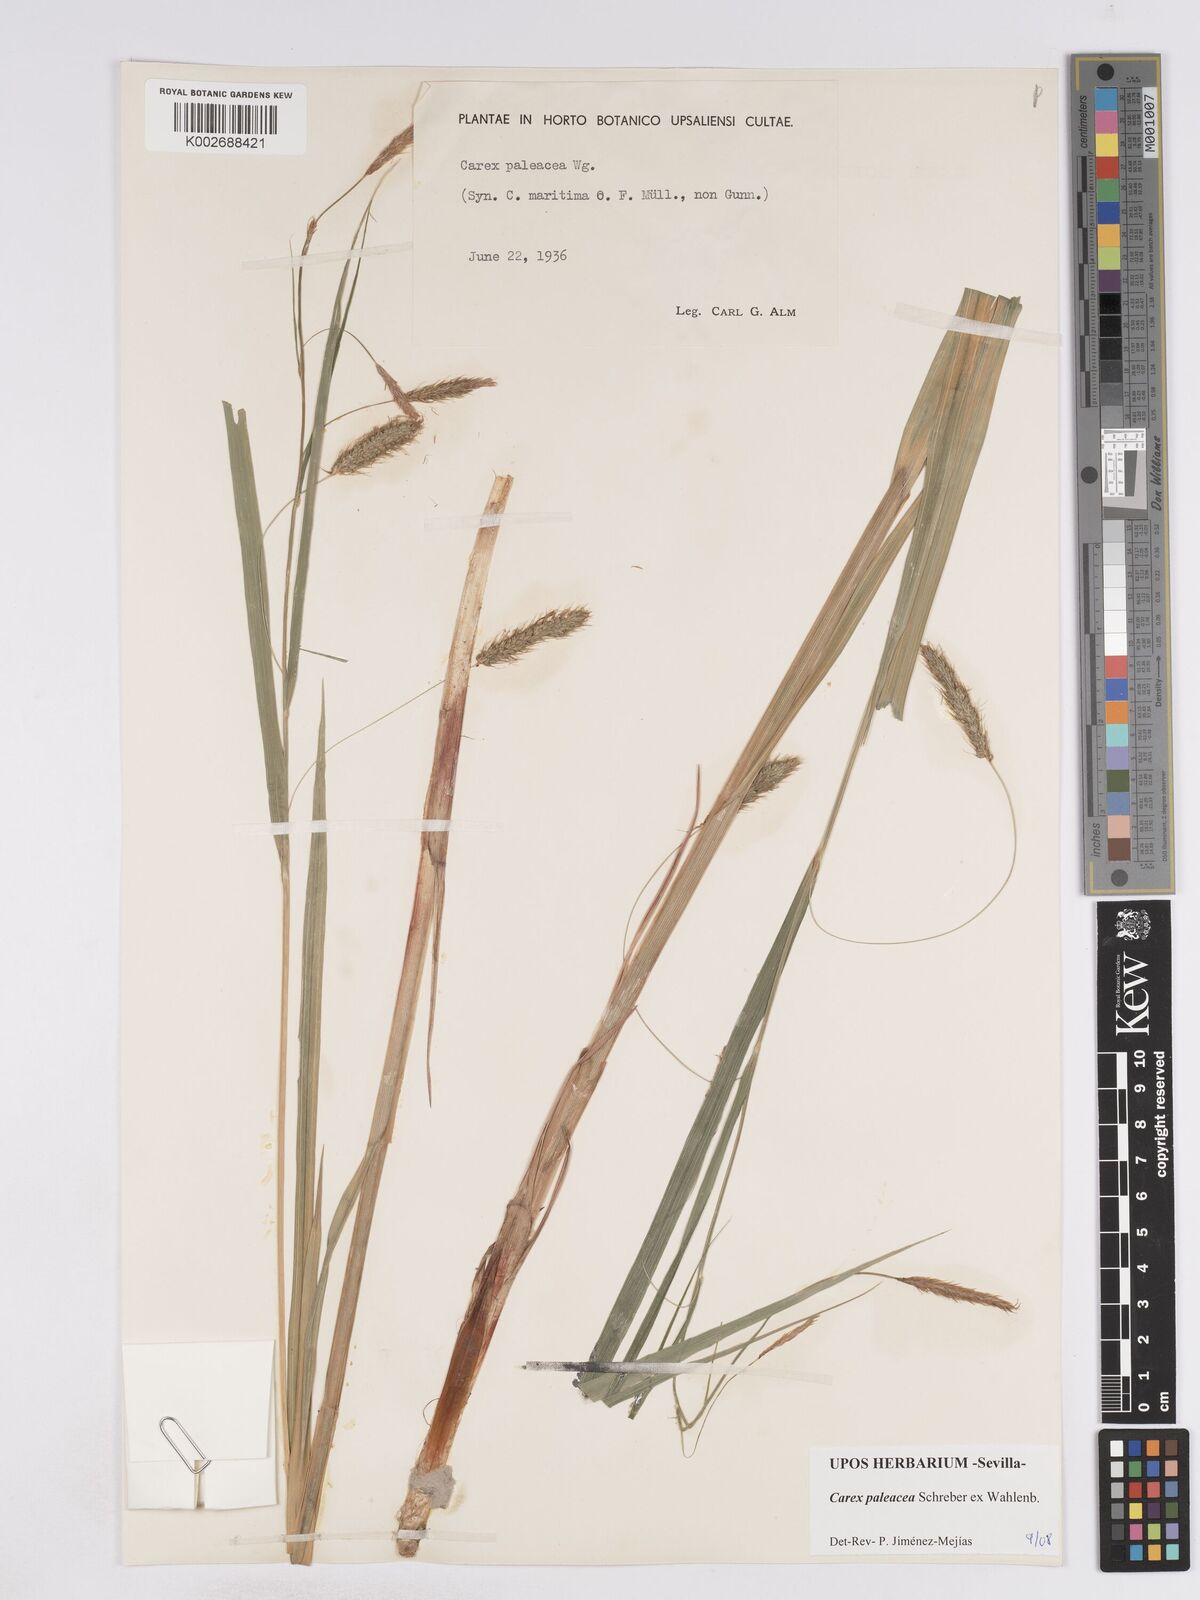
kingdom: Plantae
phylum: Tracheophyta
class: Liliopsida
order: Poales
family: Cyperaceae
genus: Carex
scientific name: Carex paleacea
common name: Chaffy sedge
